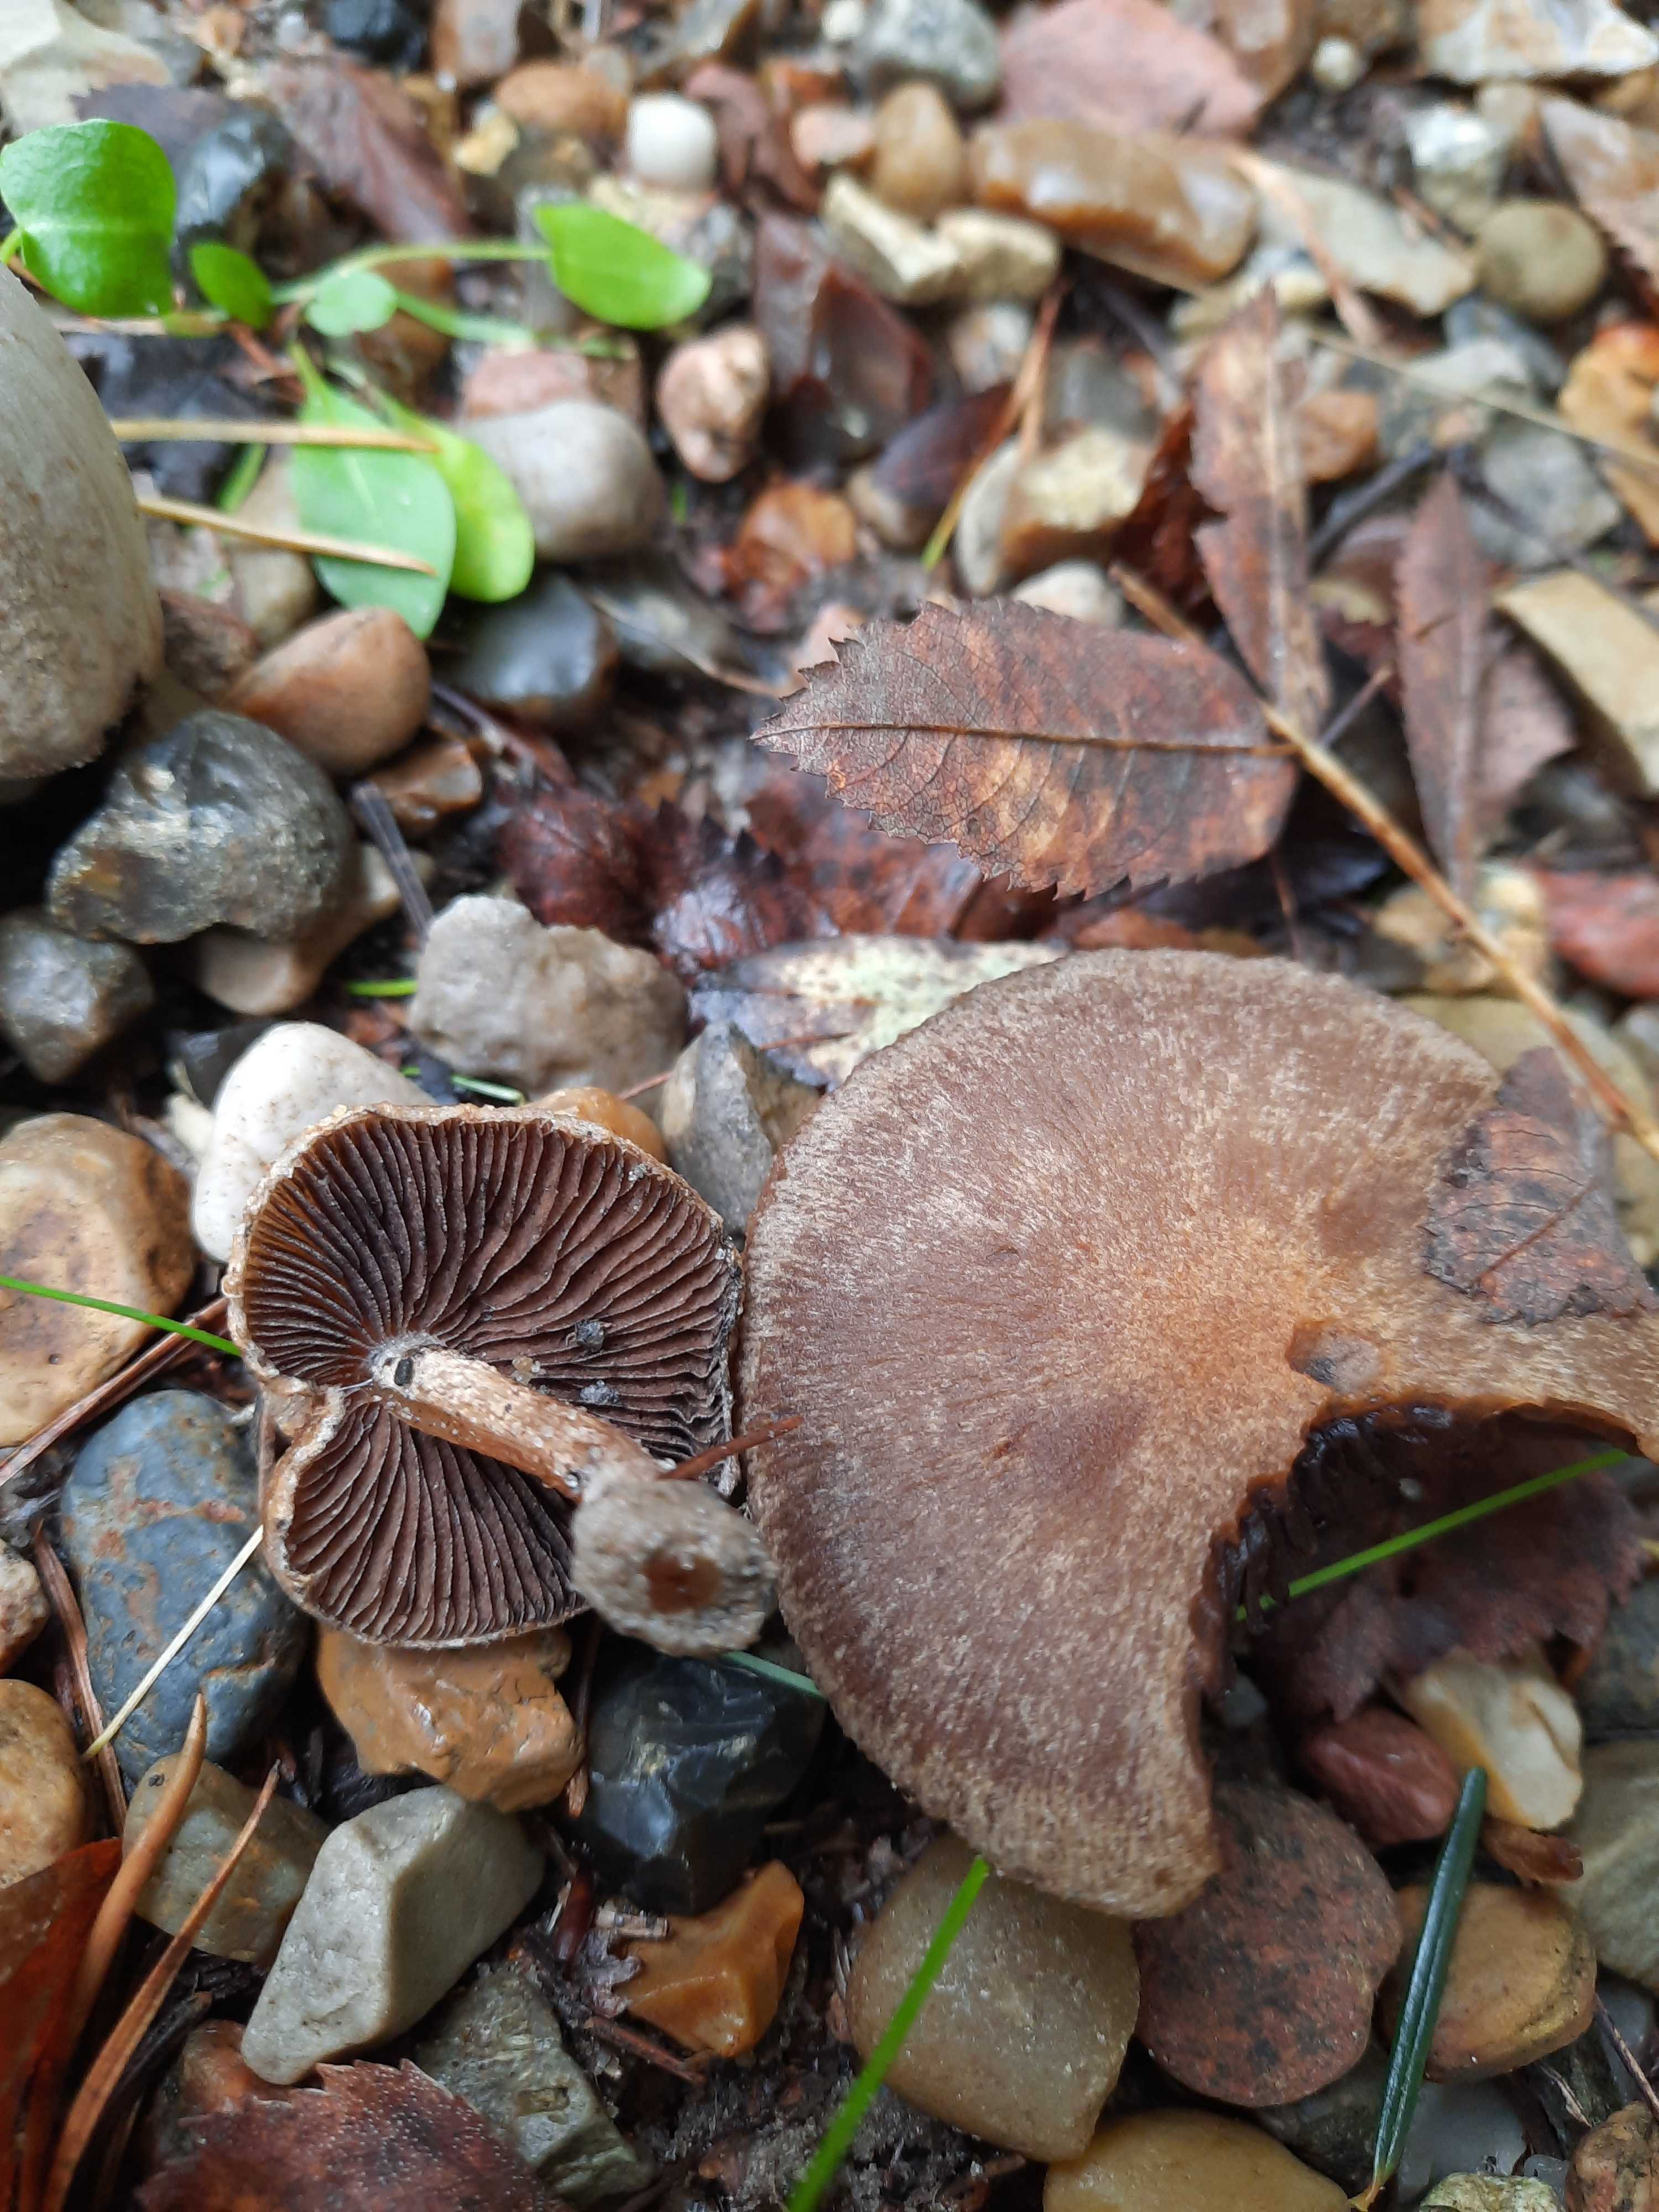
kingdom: Fungi
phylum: Basidiomycota
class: Agaricomycetes
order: Agaricales
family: Psathyrellaceae
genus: Lacrymaria
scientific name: Lacrymaria lacrymabunda
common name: grædende mørkhat
